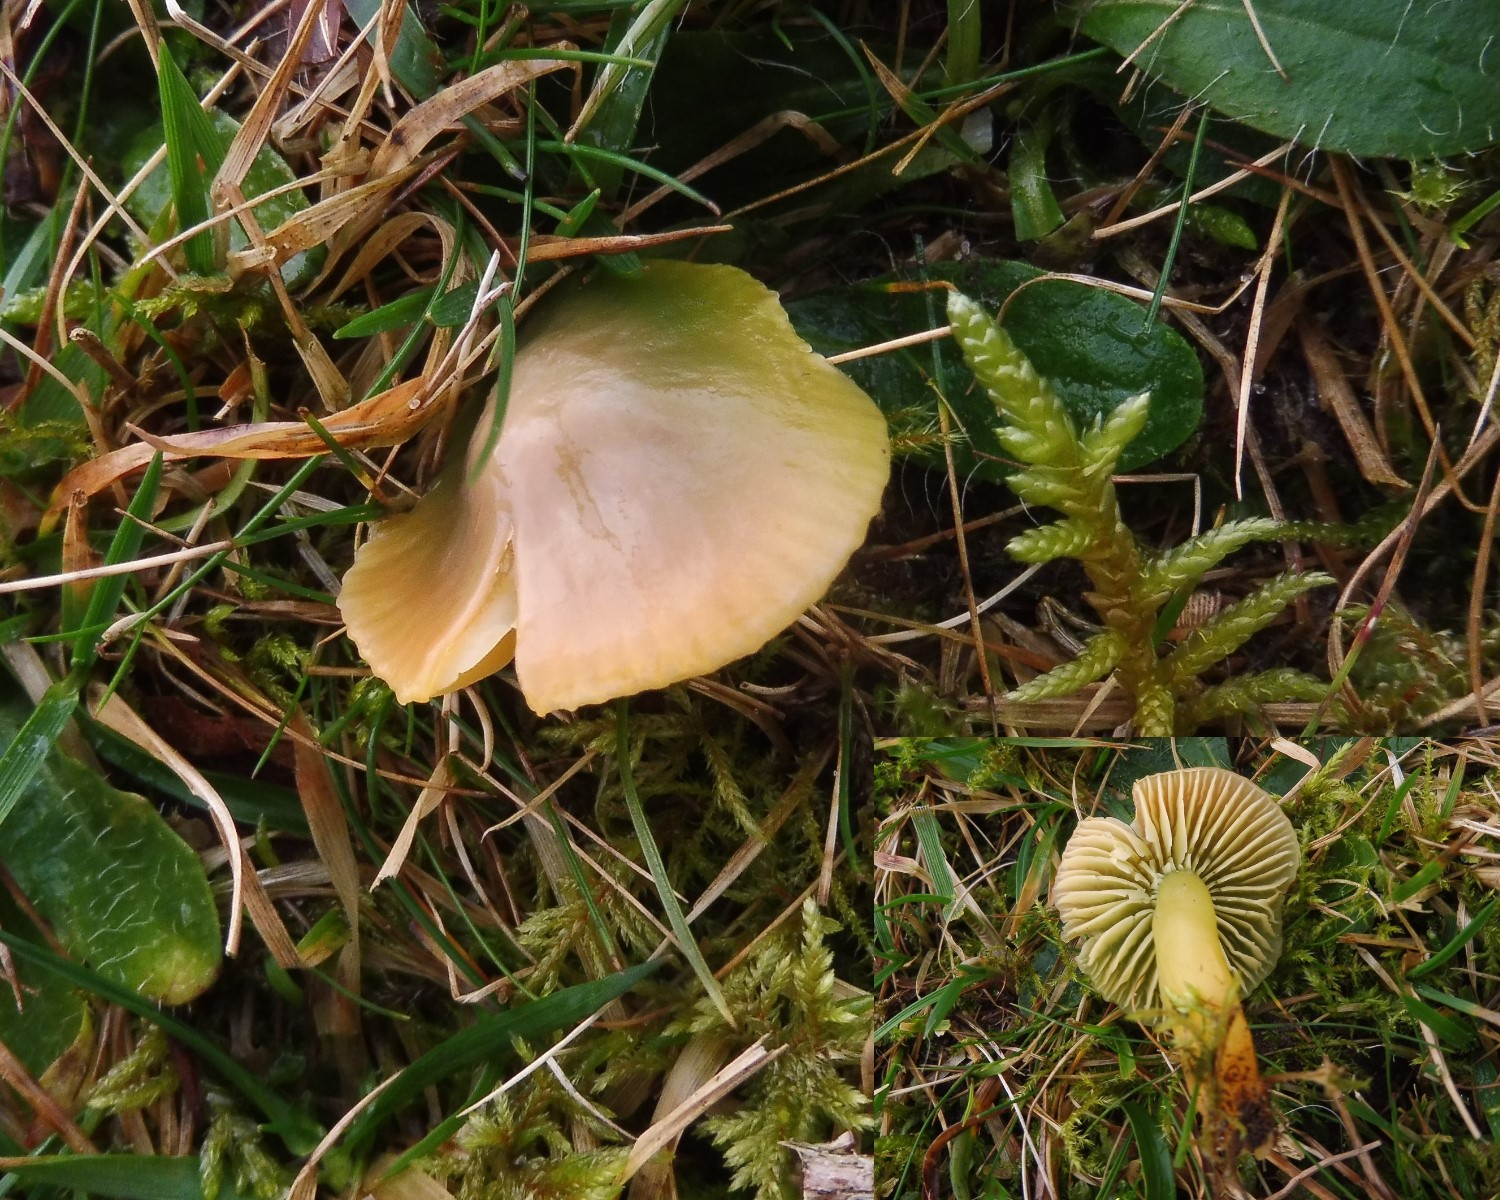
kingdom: Fungi
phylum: Basidiomycota
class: Agaricomycetes
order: Agaricales
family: Hygrophoraceae
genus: Gliophorus
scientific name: Gliophorus psittacinus
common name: papegøje-vokshat
